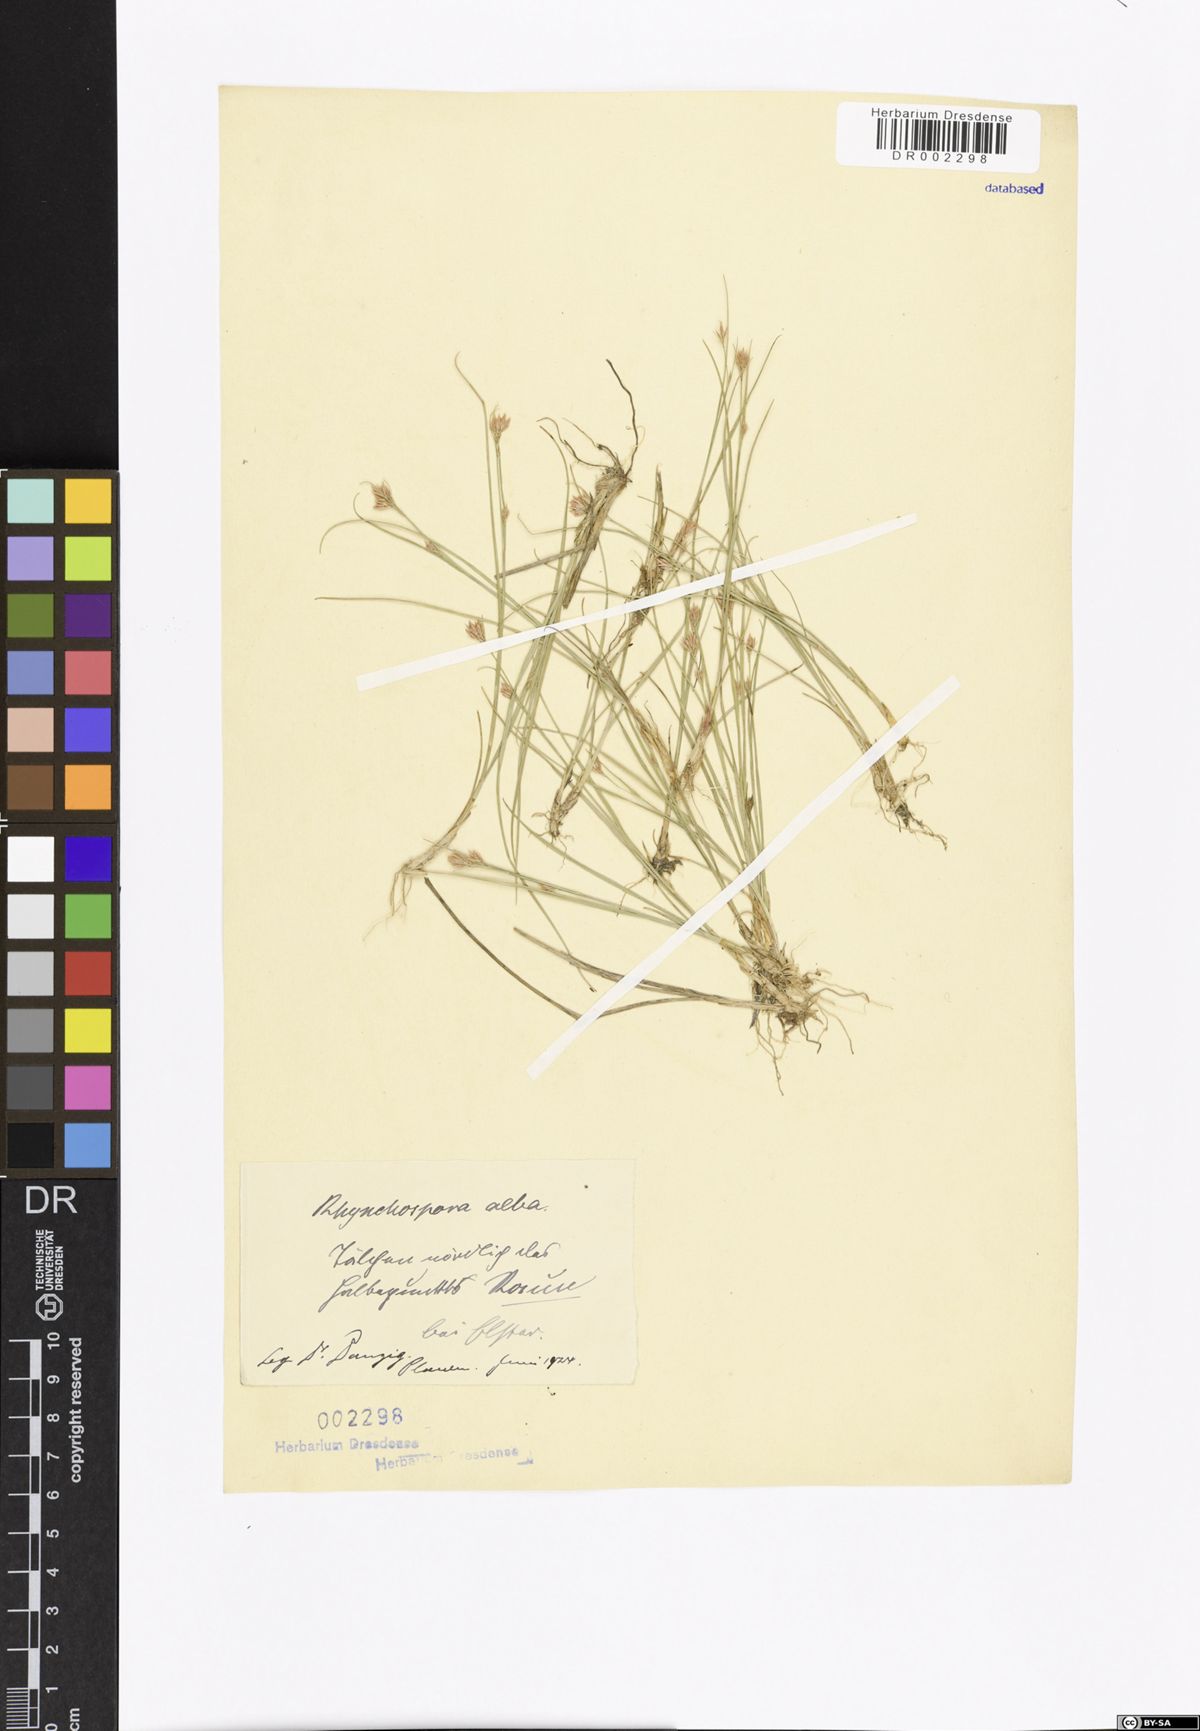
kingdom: Plantae
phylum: Tracheophyta
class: Liliopsida
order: Poales
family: Cyperaceae
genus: Rhynchospora
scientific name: Rhynchospora alba
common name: White beak-sedge
